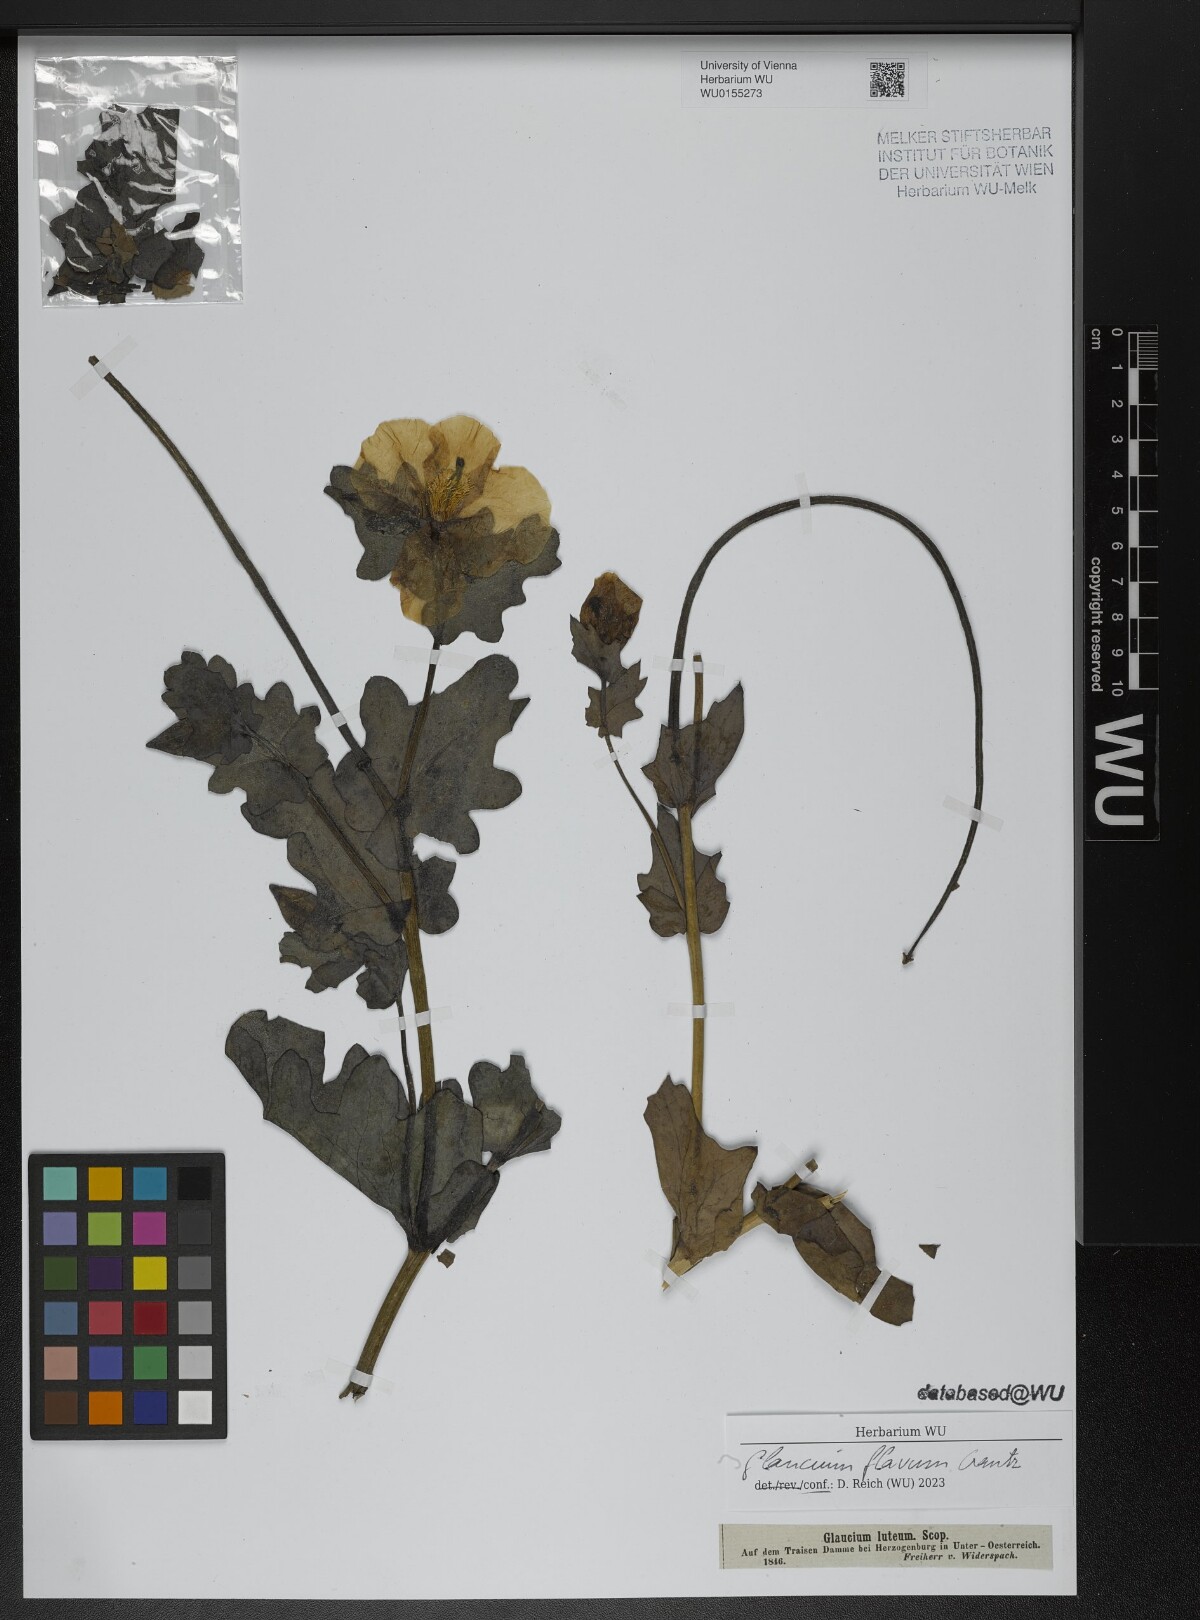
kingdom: Plantae
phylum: Tracheophyta
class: Magnoliopsida
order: Ranunculales
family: Papaveraceae
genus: Glaucium
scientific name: Glaucium flavum
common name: Yellow horned-poppy
